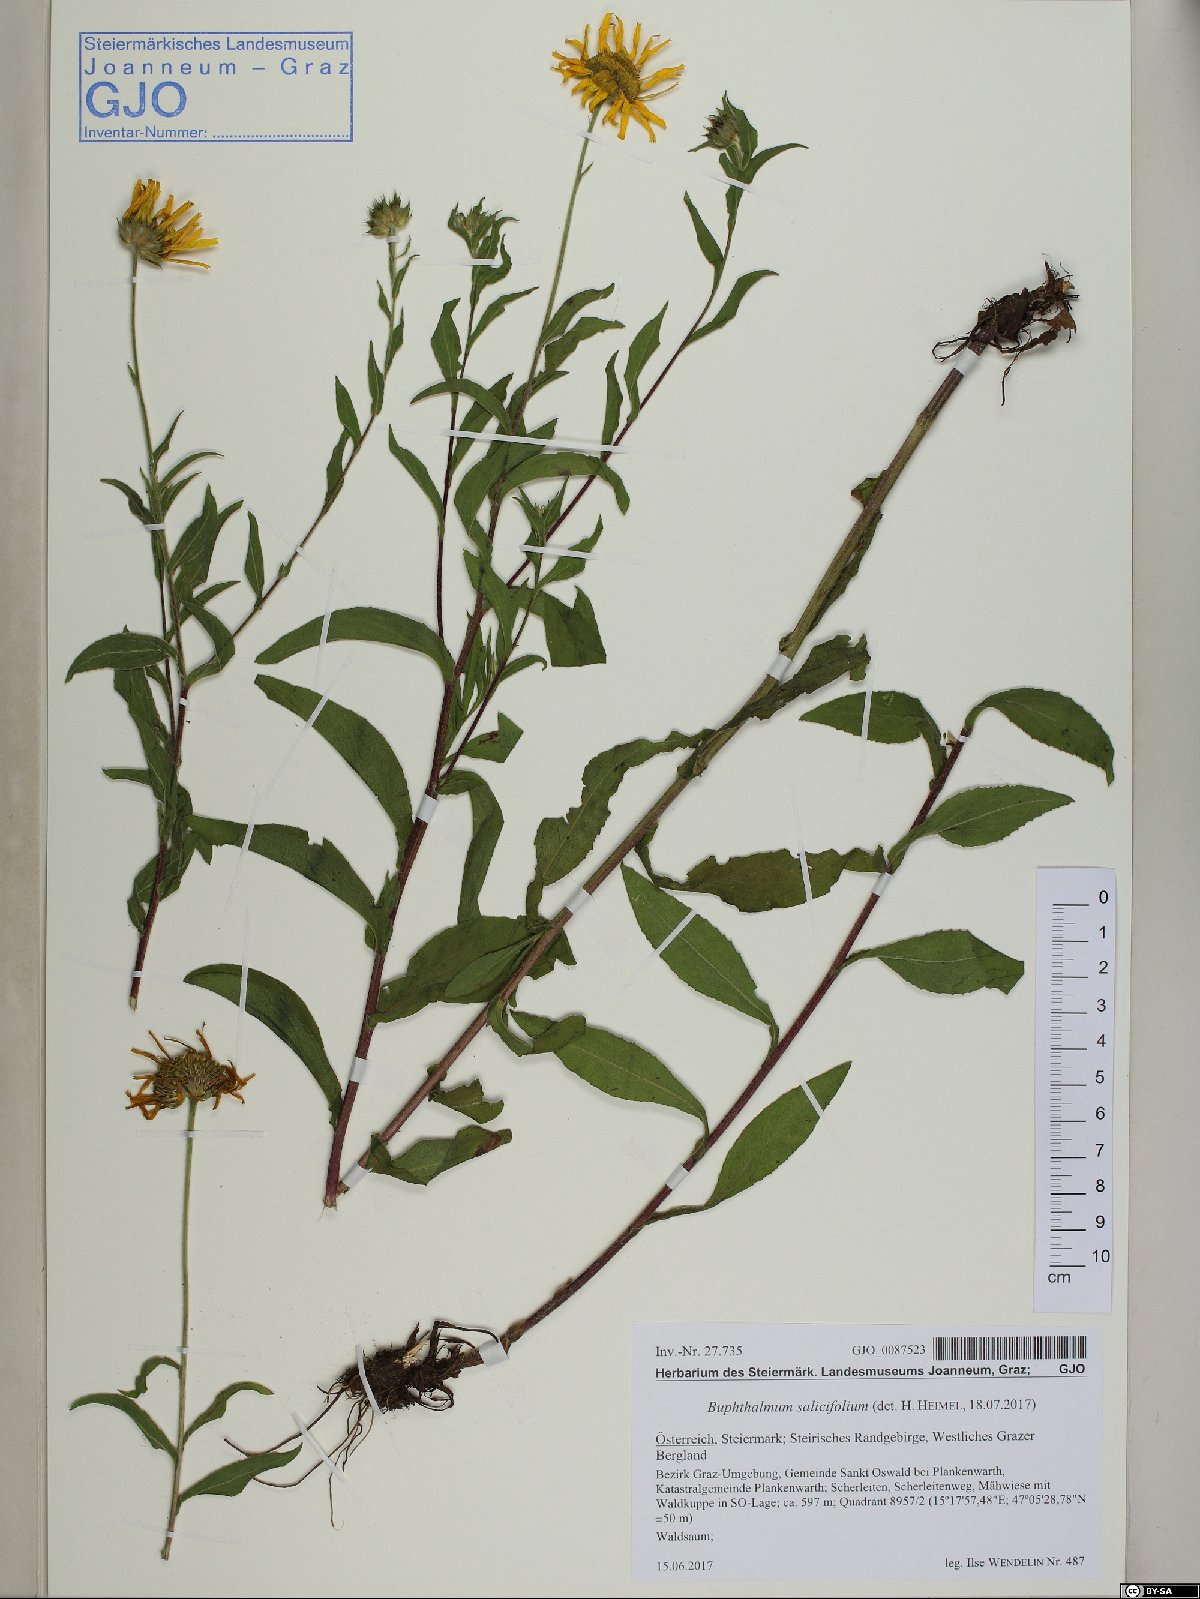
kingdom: Plantae
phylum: Tracheophyta
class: Magnoliopsida
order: Asterales
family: Asteraceae
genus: Buphthalmum
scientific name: Buphthalmum salicifolium
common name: Willow-leaved yellow-oxeye
